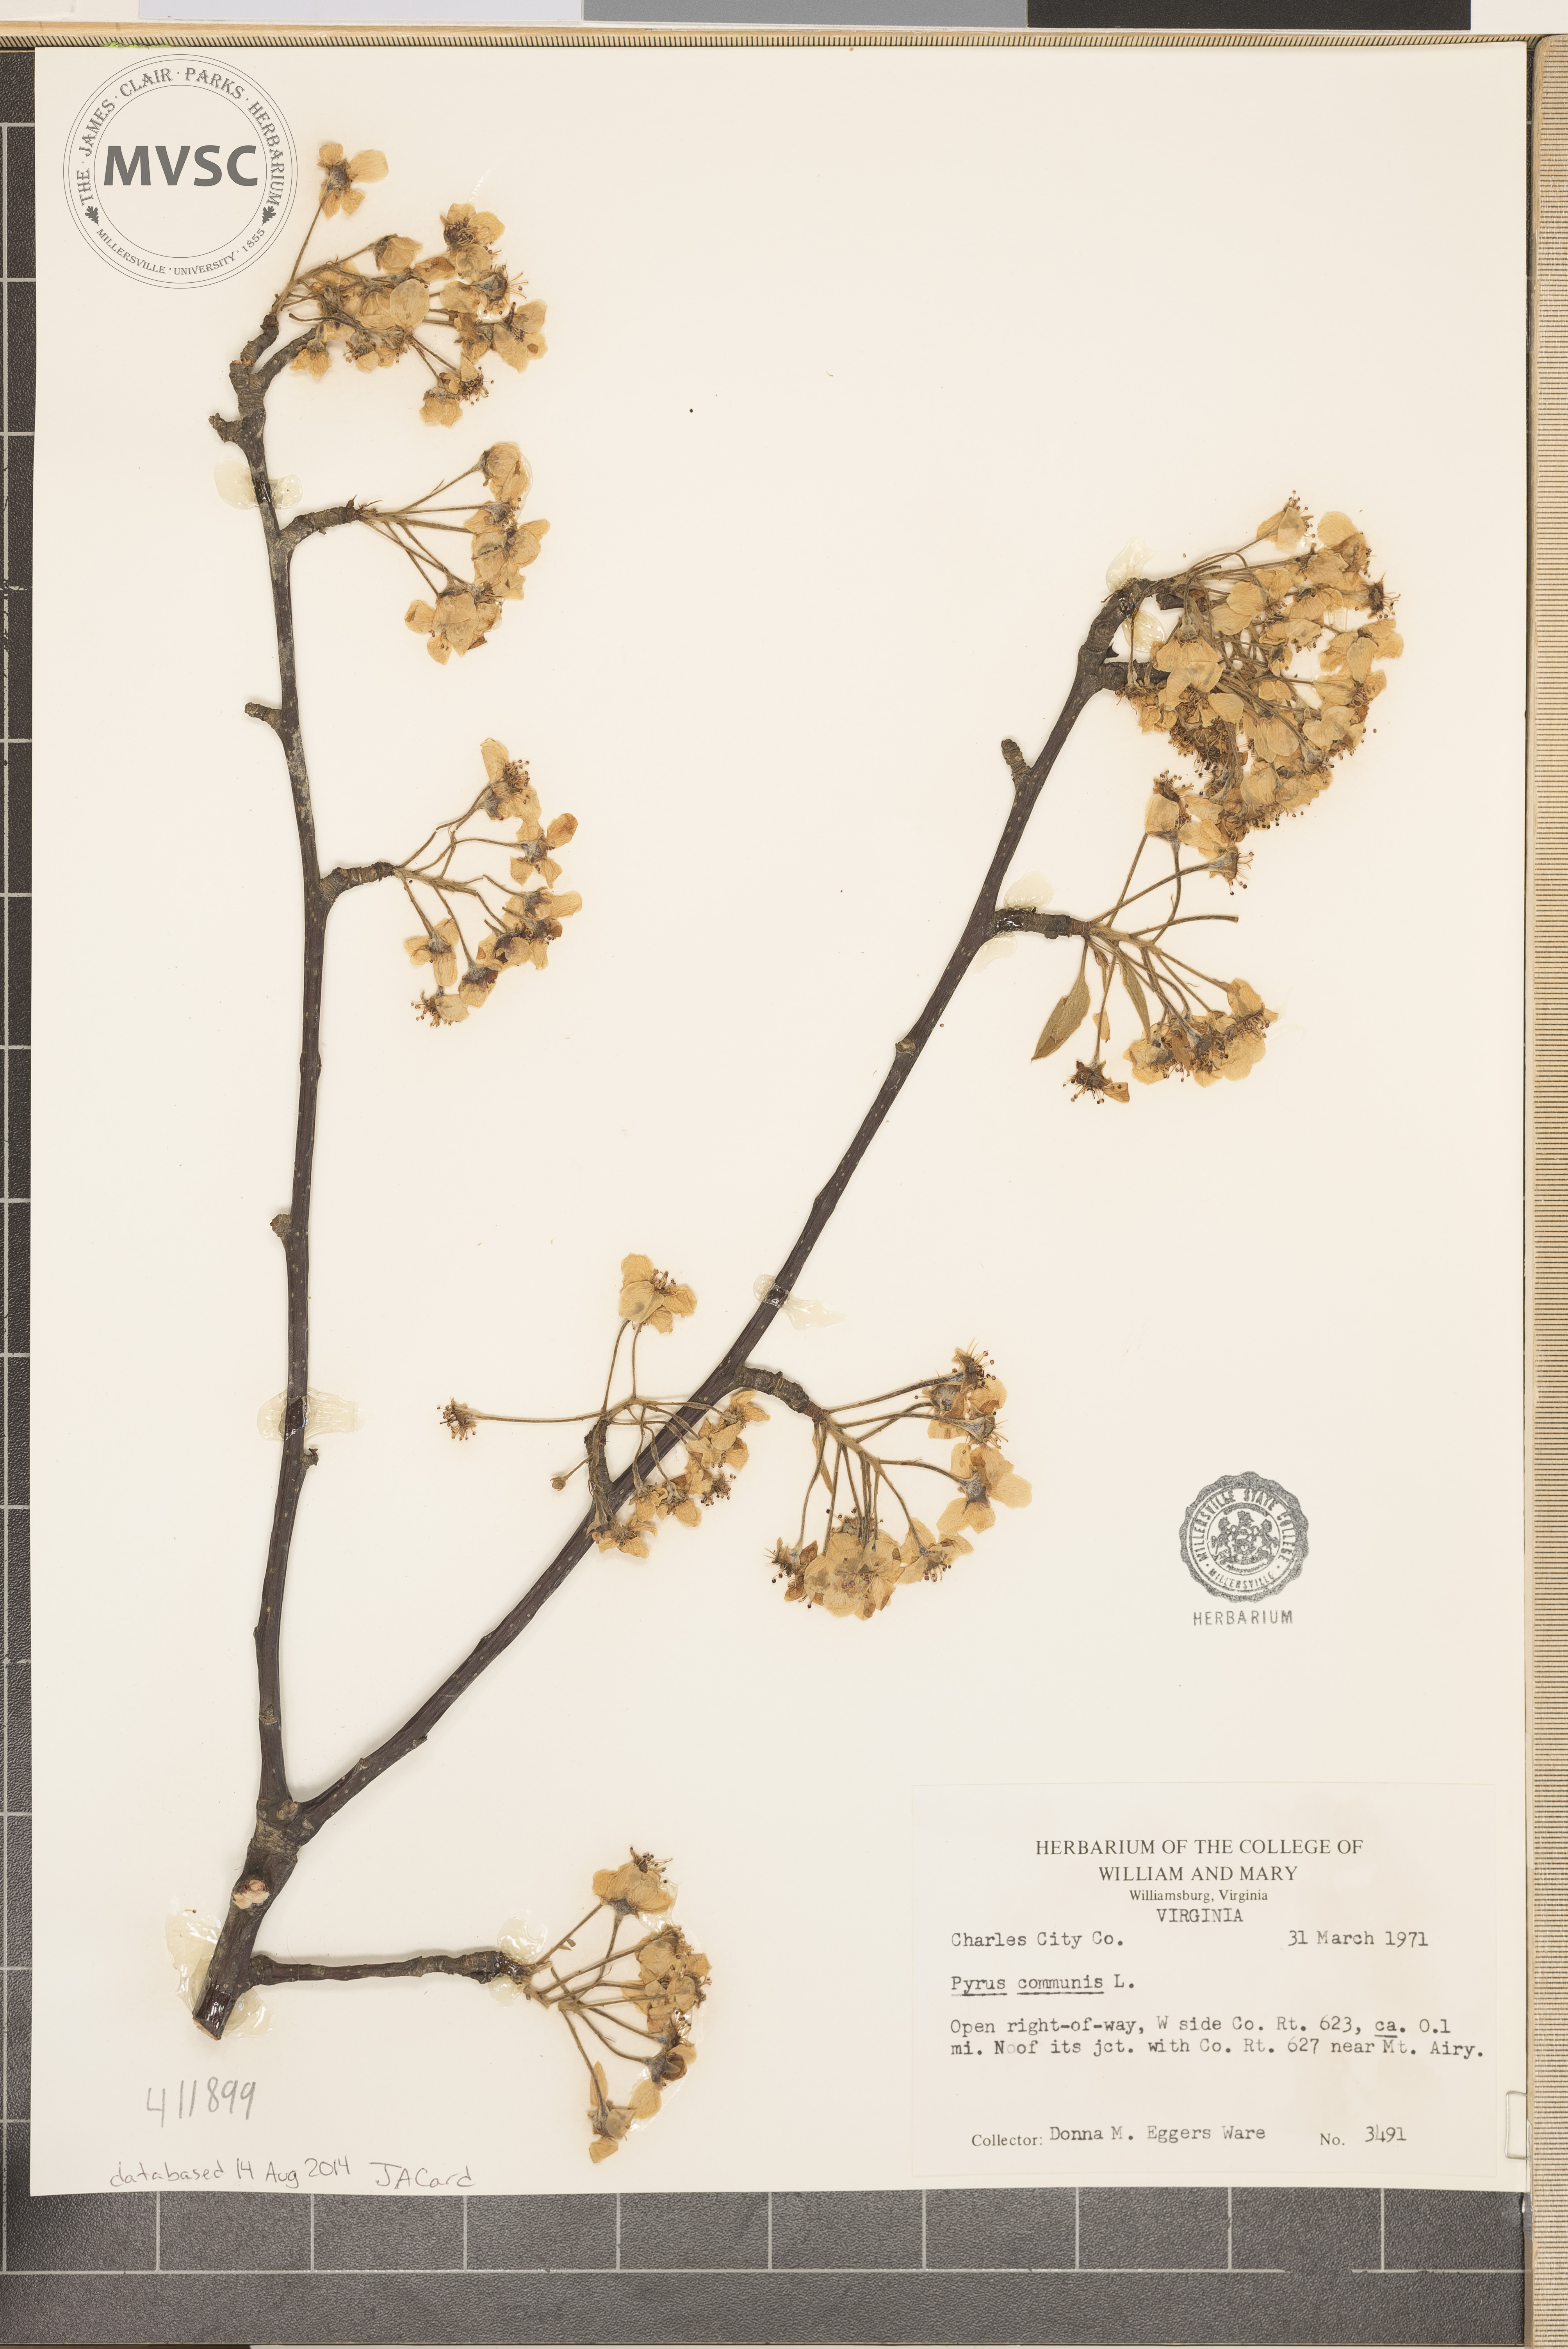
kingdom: Plantae
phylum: Tracheophyta
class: Magnoliopsida
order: Rosales
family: Rosaceae
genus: Pyrus
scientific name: Pyrus communis
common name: Pear
